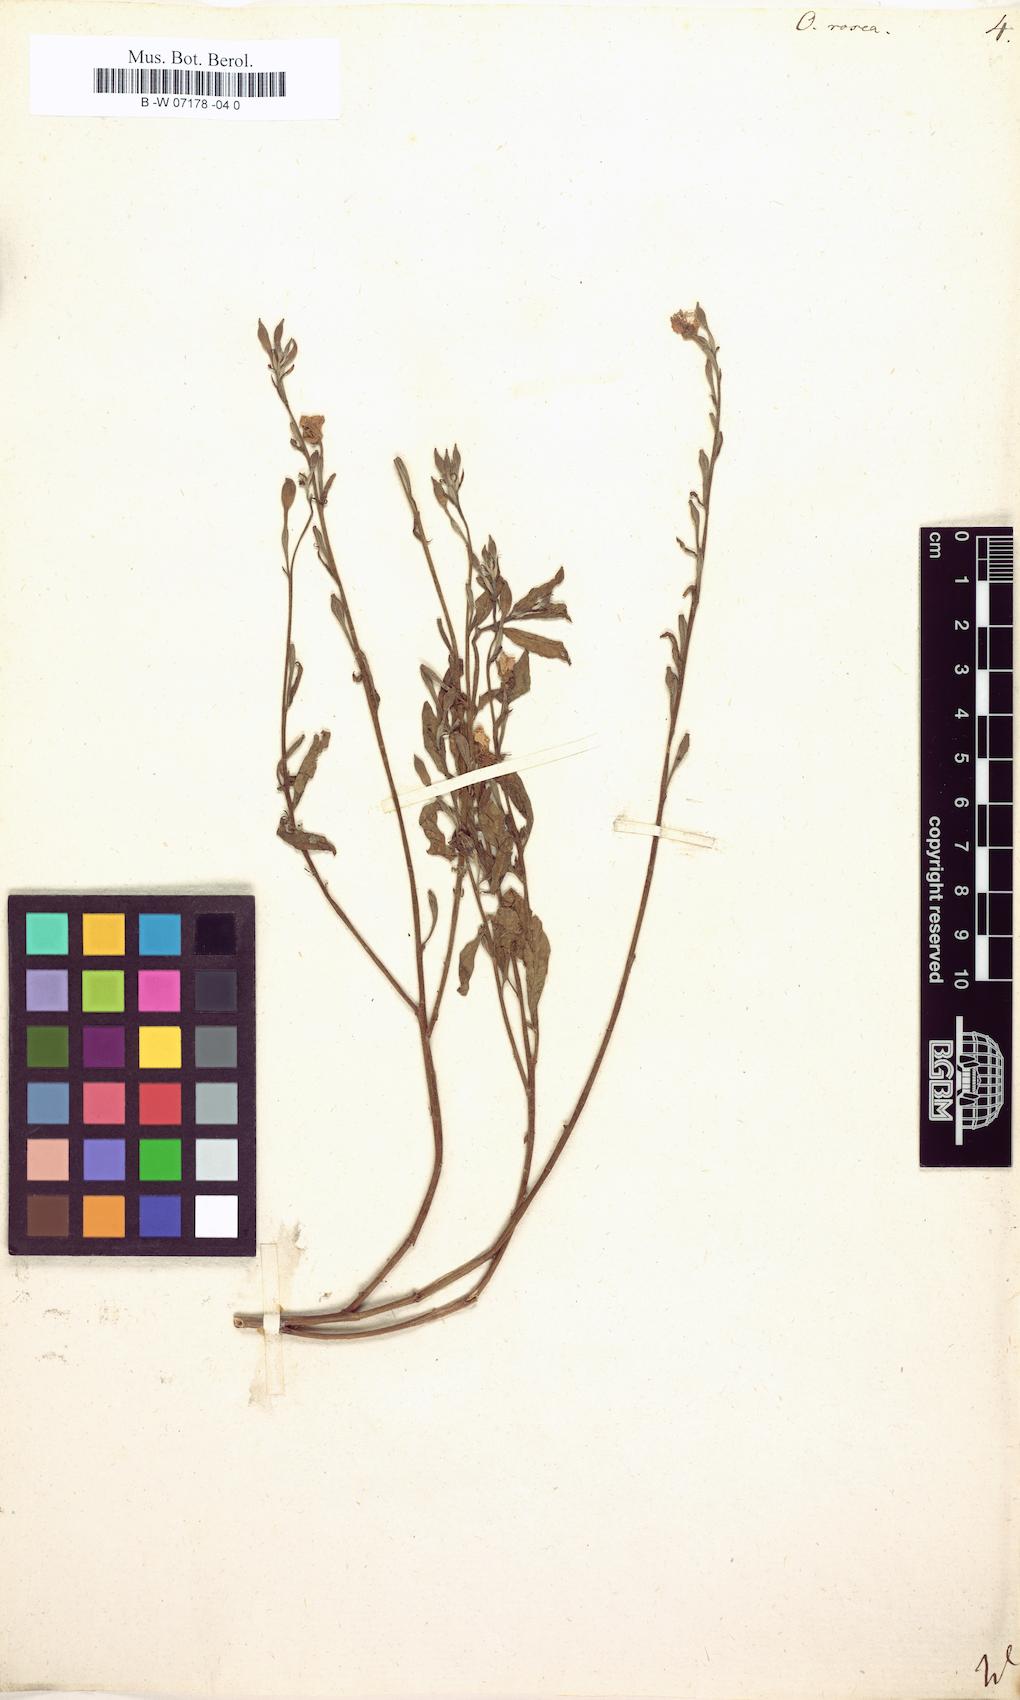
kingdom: Plantae
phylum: Tracheophyta
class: Magnoliopsida
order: Myrtales
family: Onagraceae
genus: Oenothera
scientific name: Oenothera rosea
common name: Rosy evening-primrose
